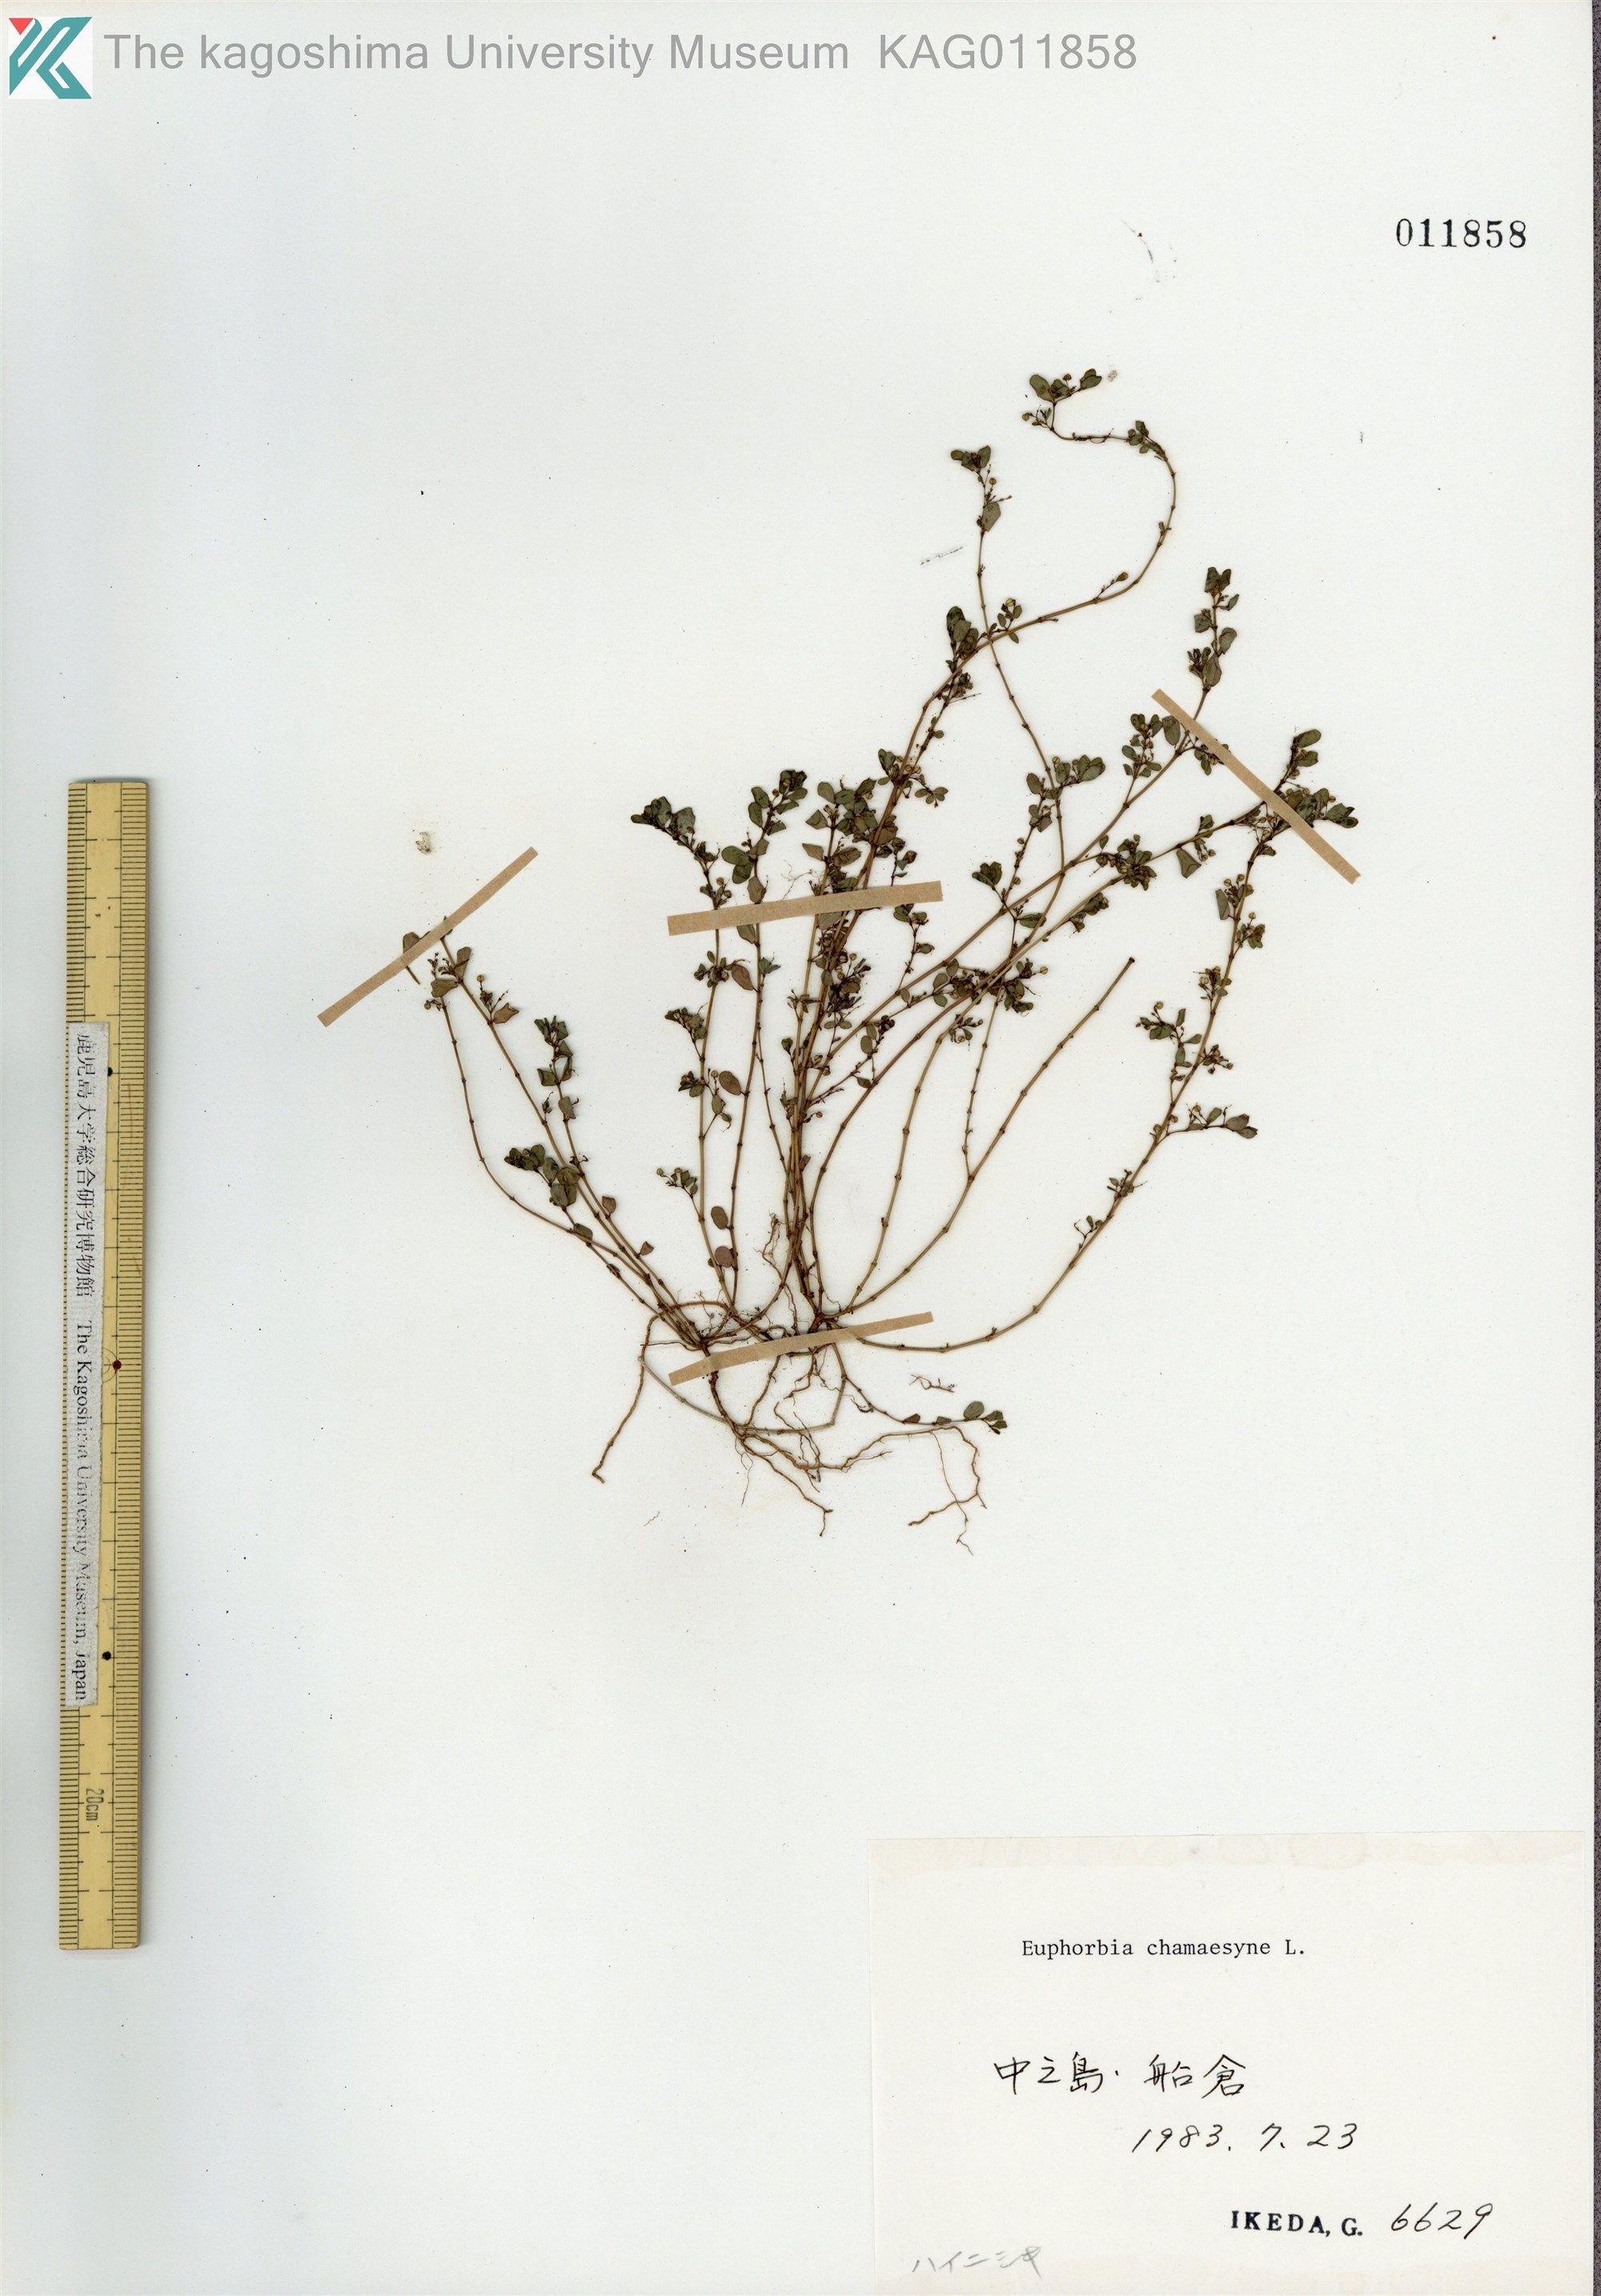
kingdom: Plantae
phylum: Tracheophyta
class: Magnoliopsida
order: Malpighiales
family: Euphorbiaceae
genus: Euphorbia
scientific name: Euphorbia prostrata
